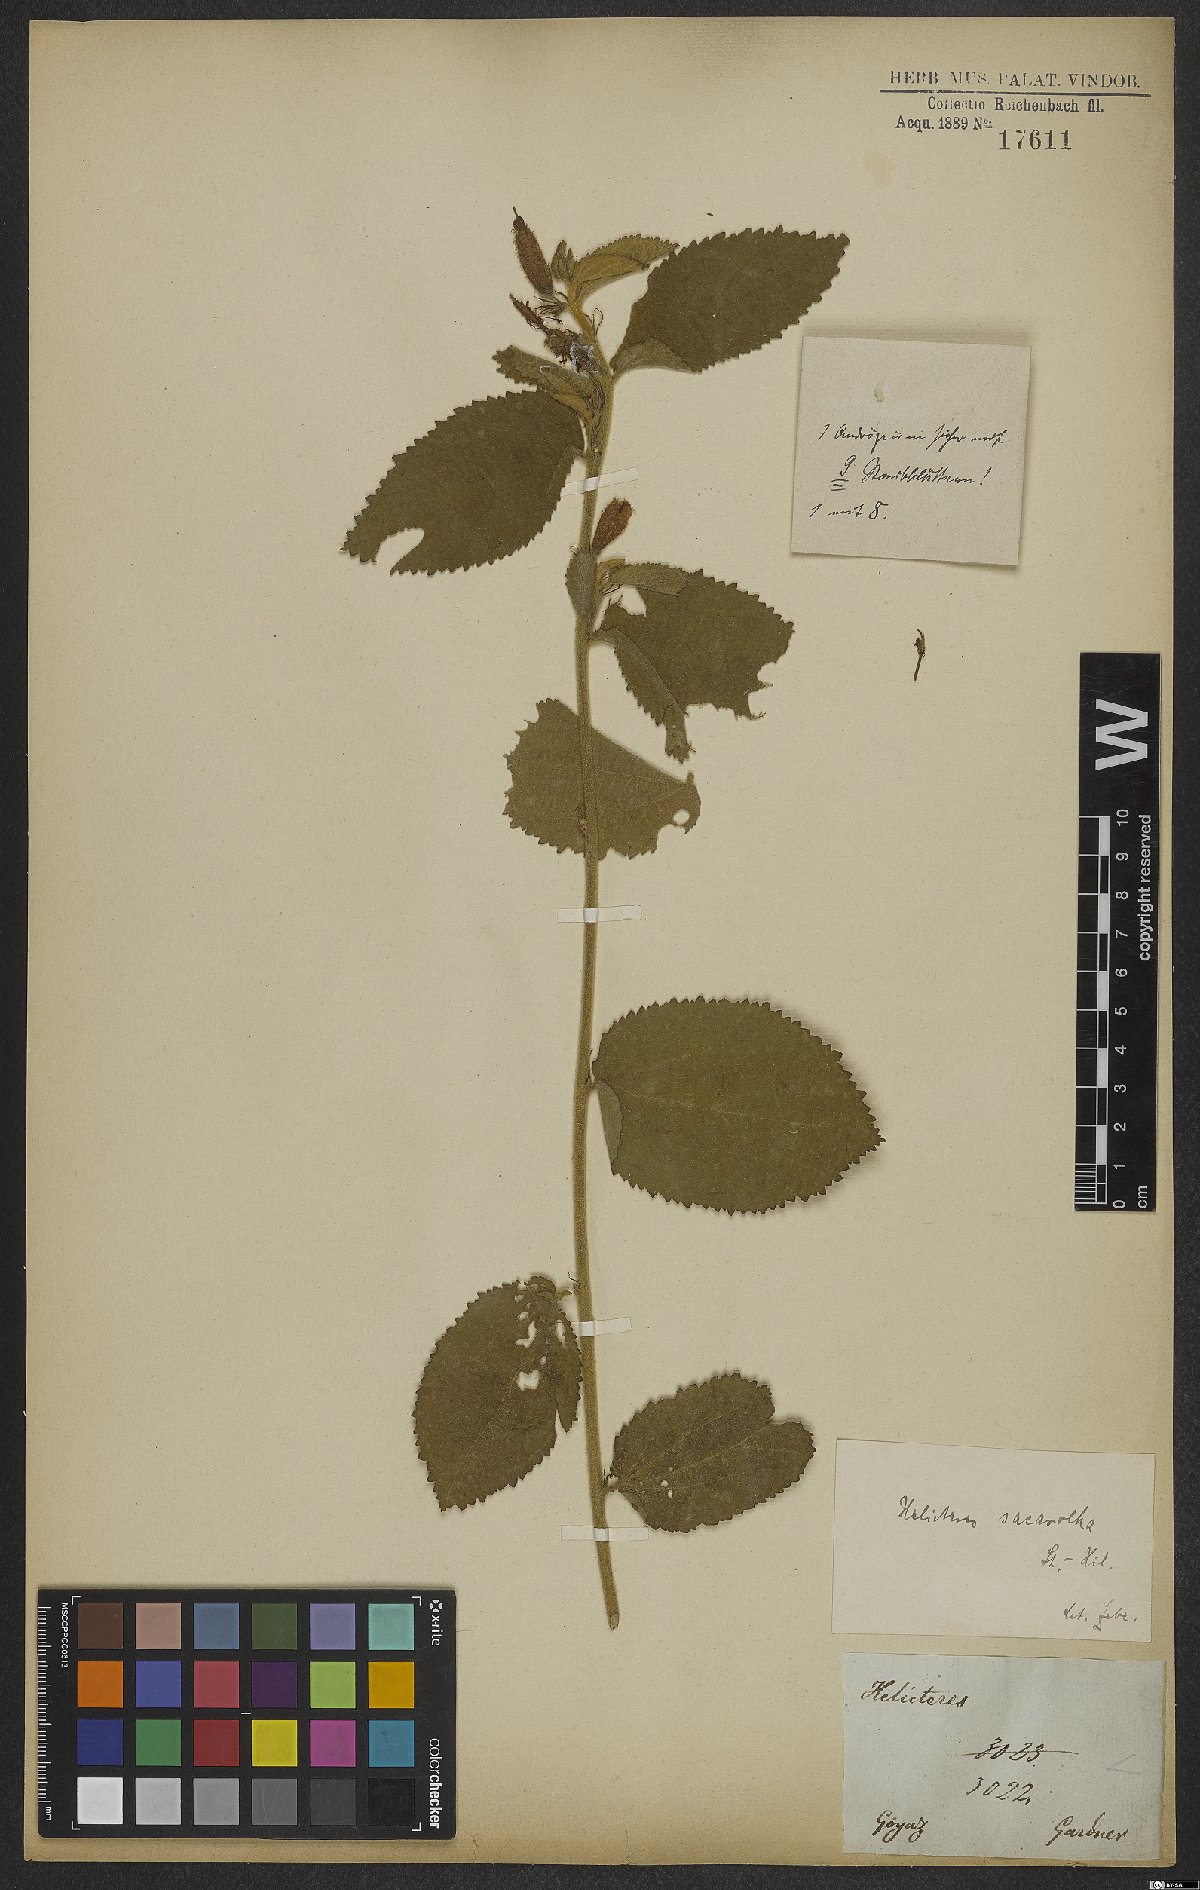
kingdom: Plantae
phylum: Tracheophyta
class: Magnoliopsida
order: Malvales
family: Malvaceae
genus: Helicteres
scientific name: Helicteres sacarolha
